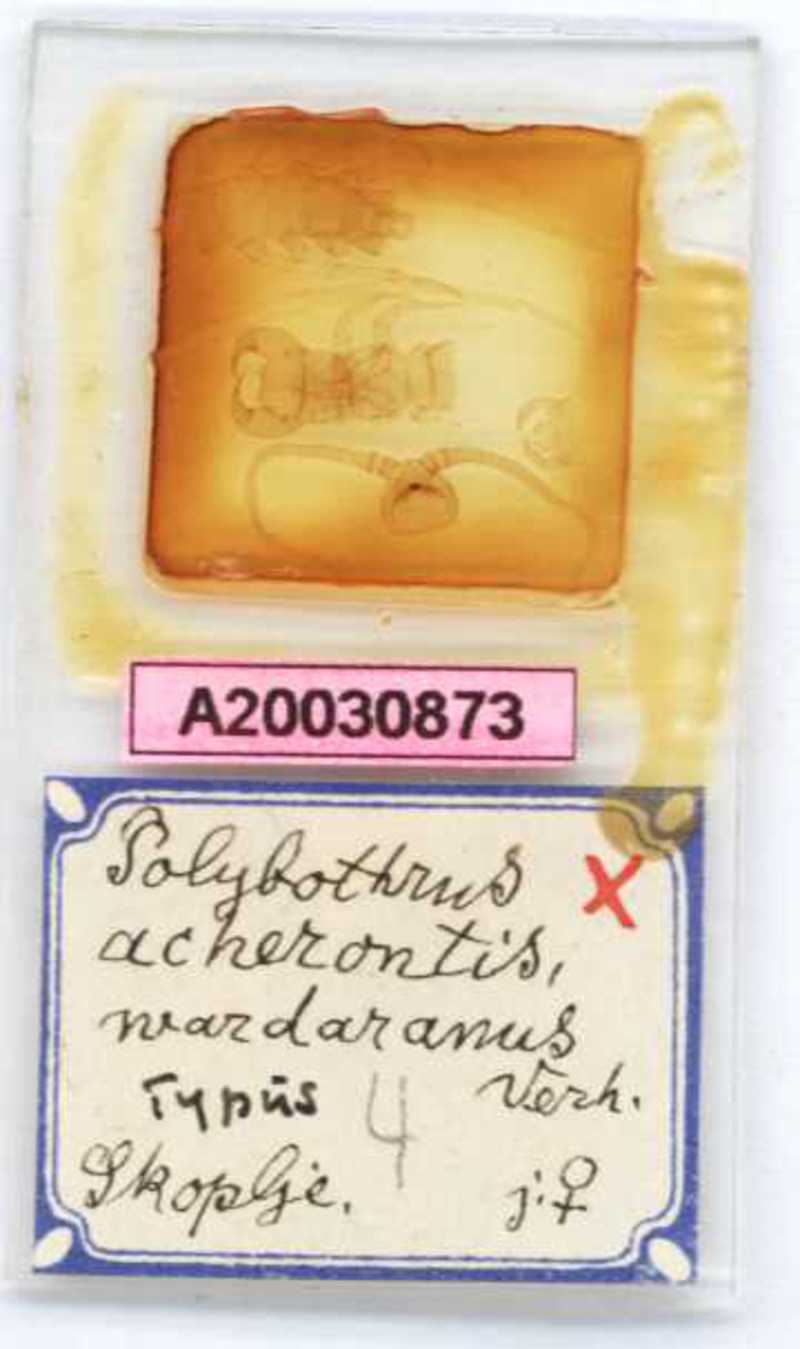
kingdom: Animalia
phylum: Arthropoda
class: Chilopoda
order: Lithobiomorpha
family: Lithobiidae
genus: Polybothrus
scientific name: Polybothrus acherontis
